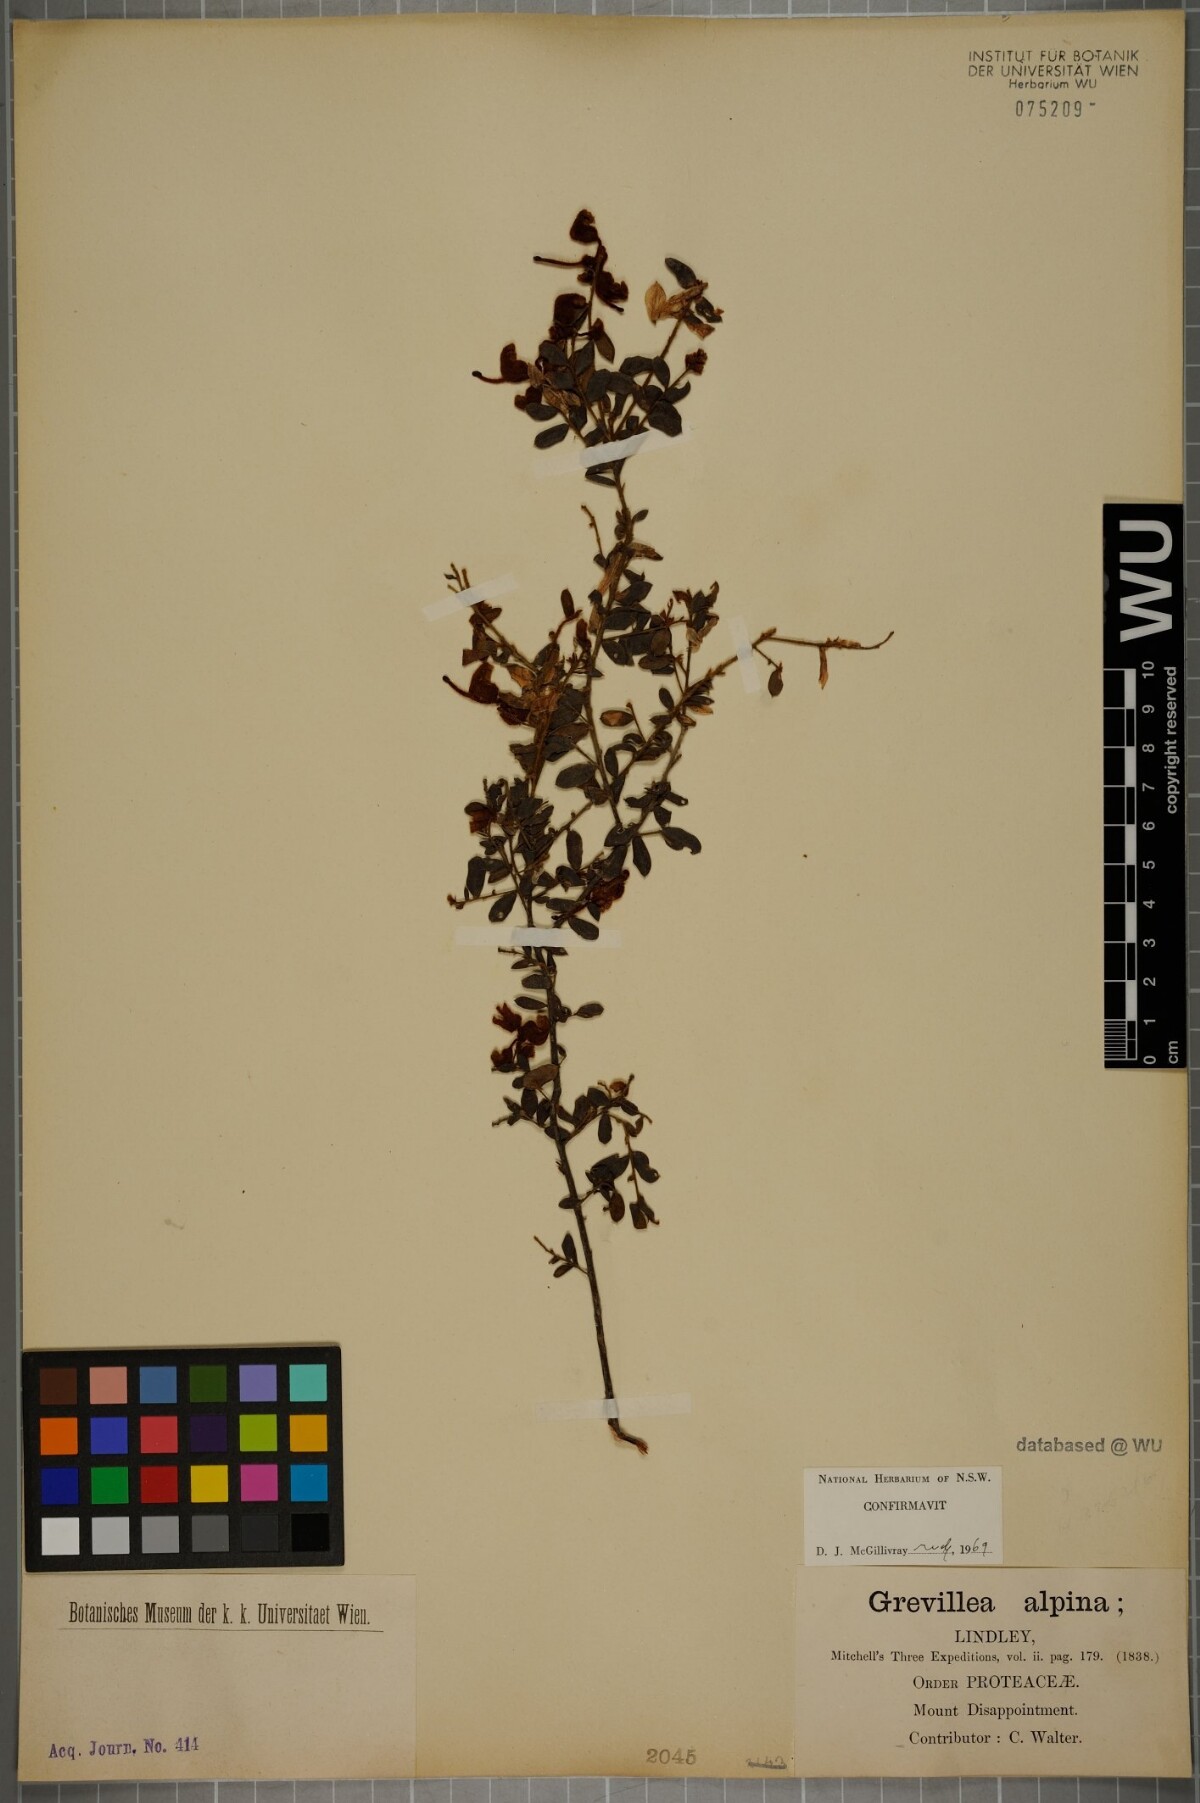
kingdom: Plantae
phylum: Tracheophyta
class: Magnoliopsida
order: Proteales
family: Proteaceae
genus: Grevillea
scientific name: Grevillea alpina
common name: Catclaws grevillea
